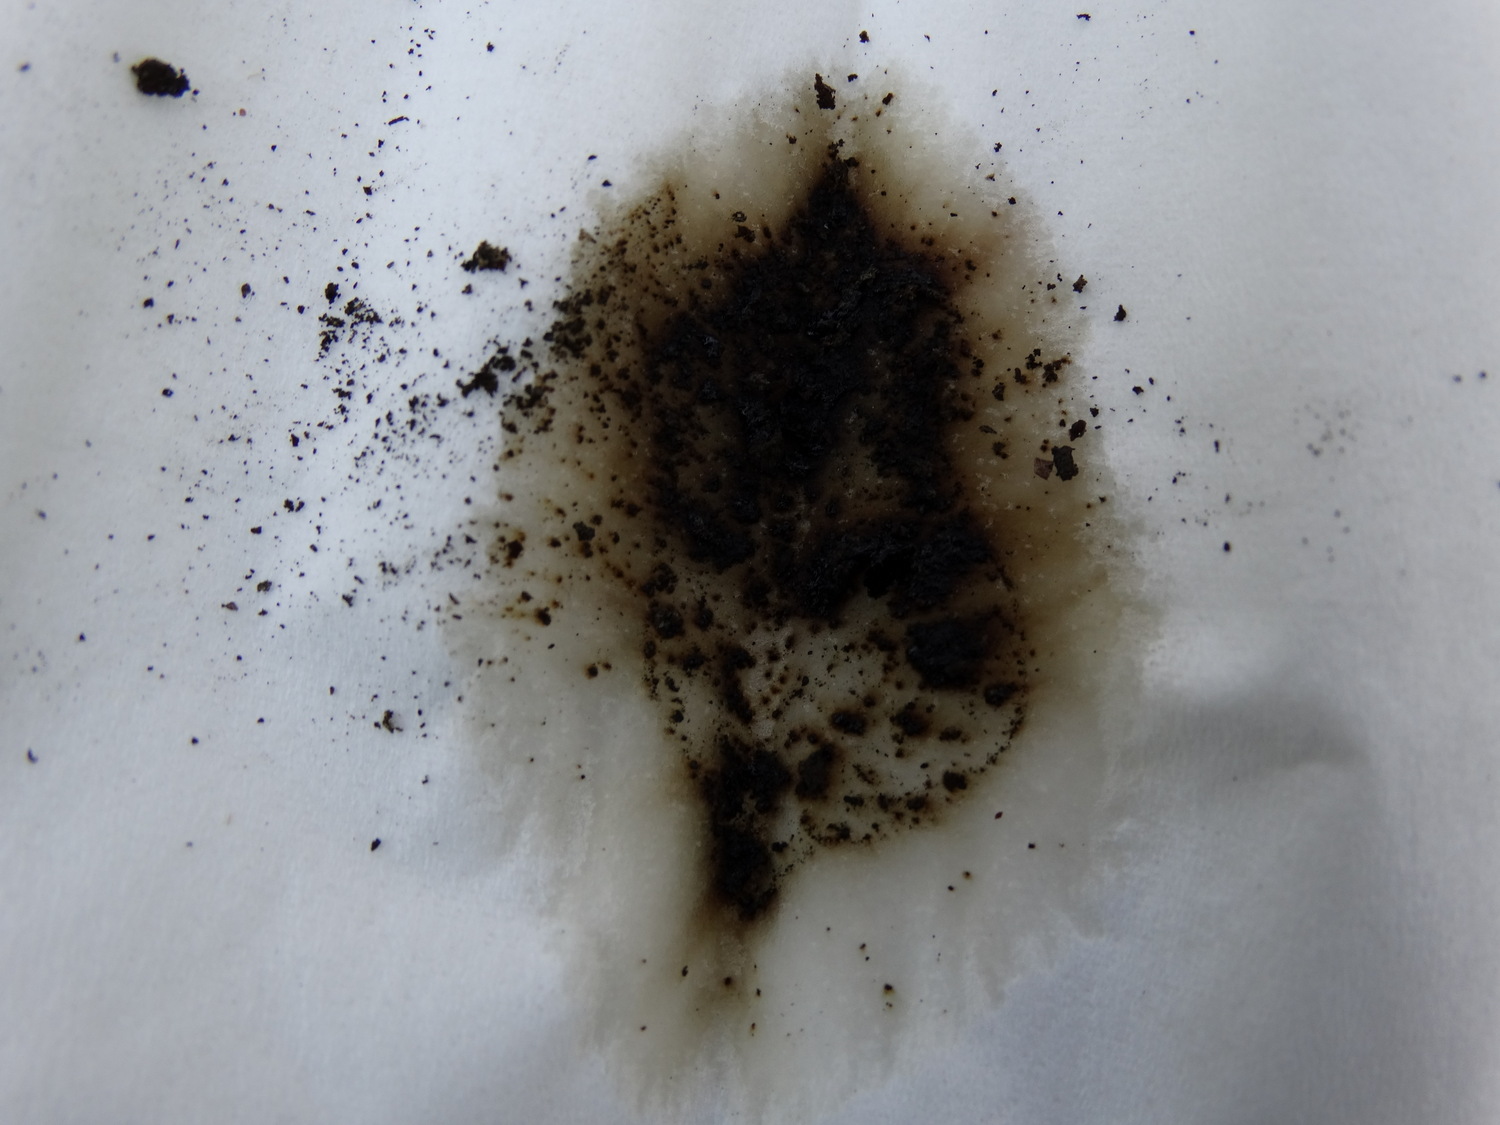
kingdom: Fungi
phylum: Ascomycota
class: Sordariomycetes
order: Xylariales
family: Hypoxylaceae
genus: Hypoxylon
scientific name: Hypoxylon macrocarpum
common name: skorpe-kulbær
